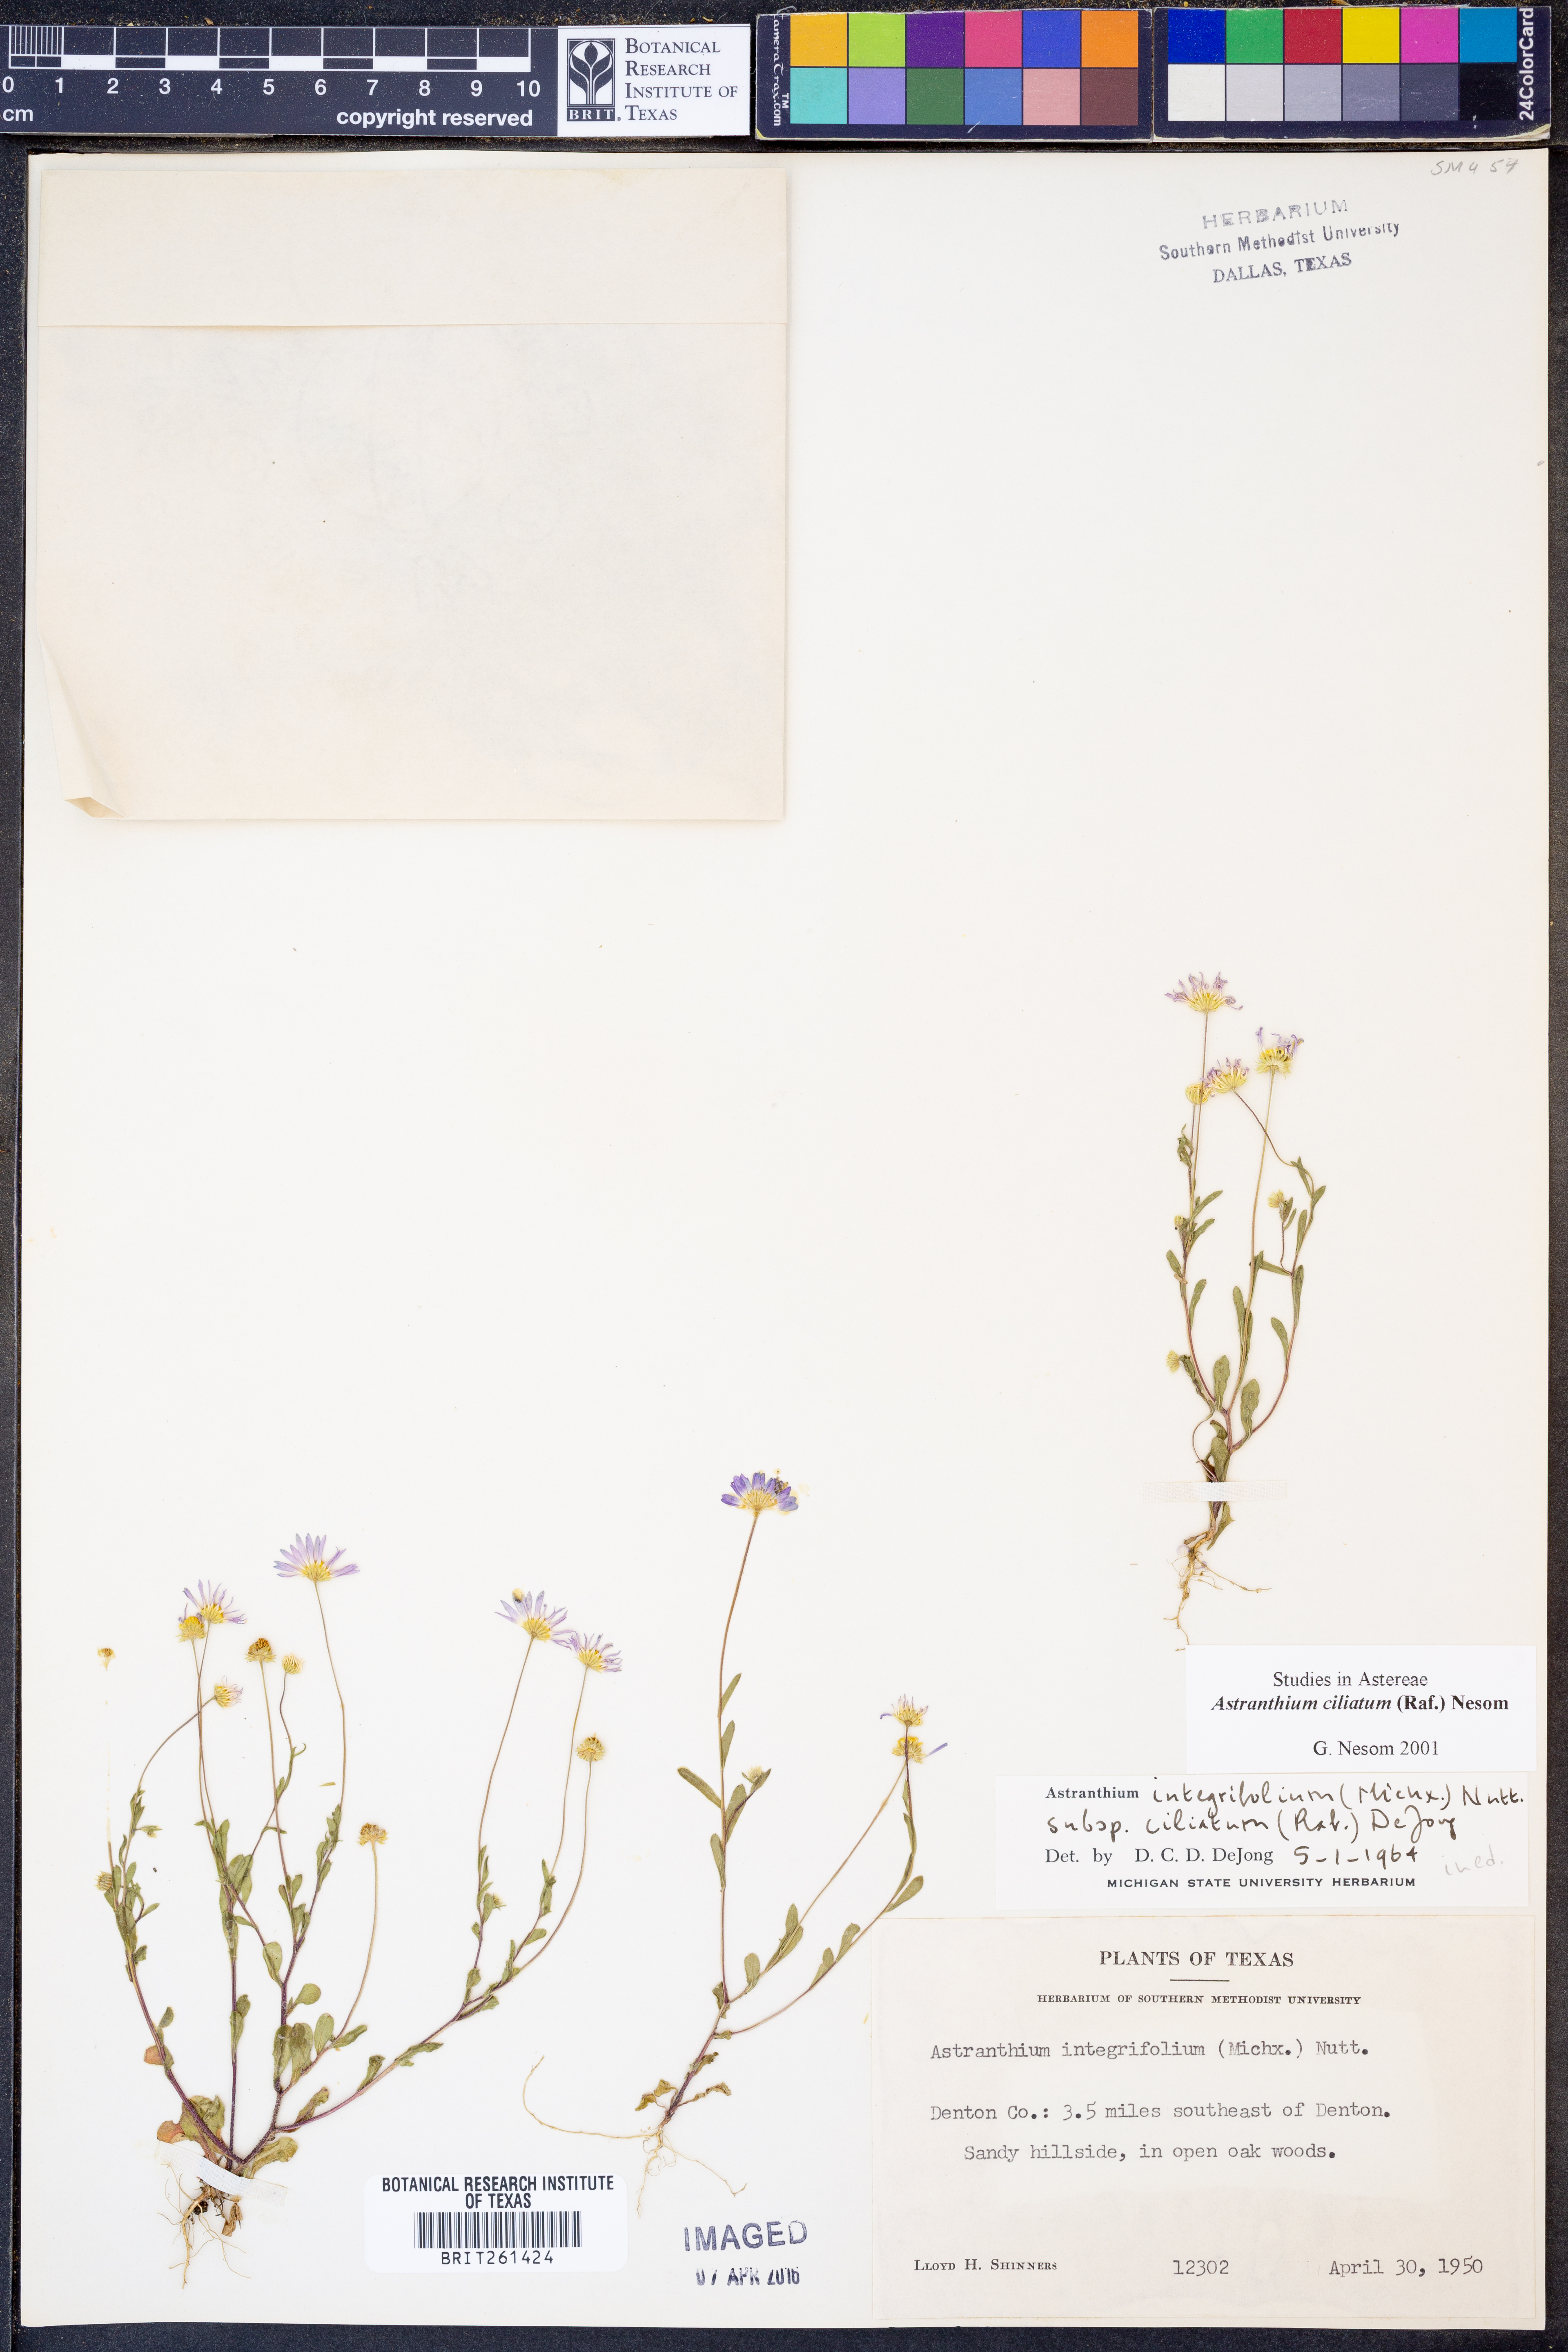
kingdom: Plantae
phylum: Tracheophyta
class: Magnoliopsida
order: Asterales
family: Asteraceae
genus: Astranthium
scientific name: Astranthium ciliatum
